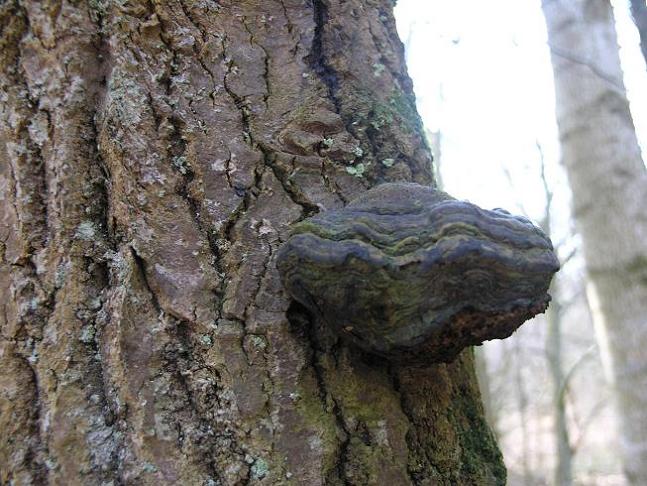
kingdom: Fungi
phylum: Basidiomycota
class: Agaricomycetes
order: Polyporales
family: Polyporaceae
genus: Fomes
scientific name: Fomes fomentarius
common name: tøndersvamp
